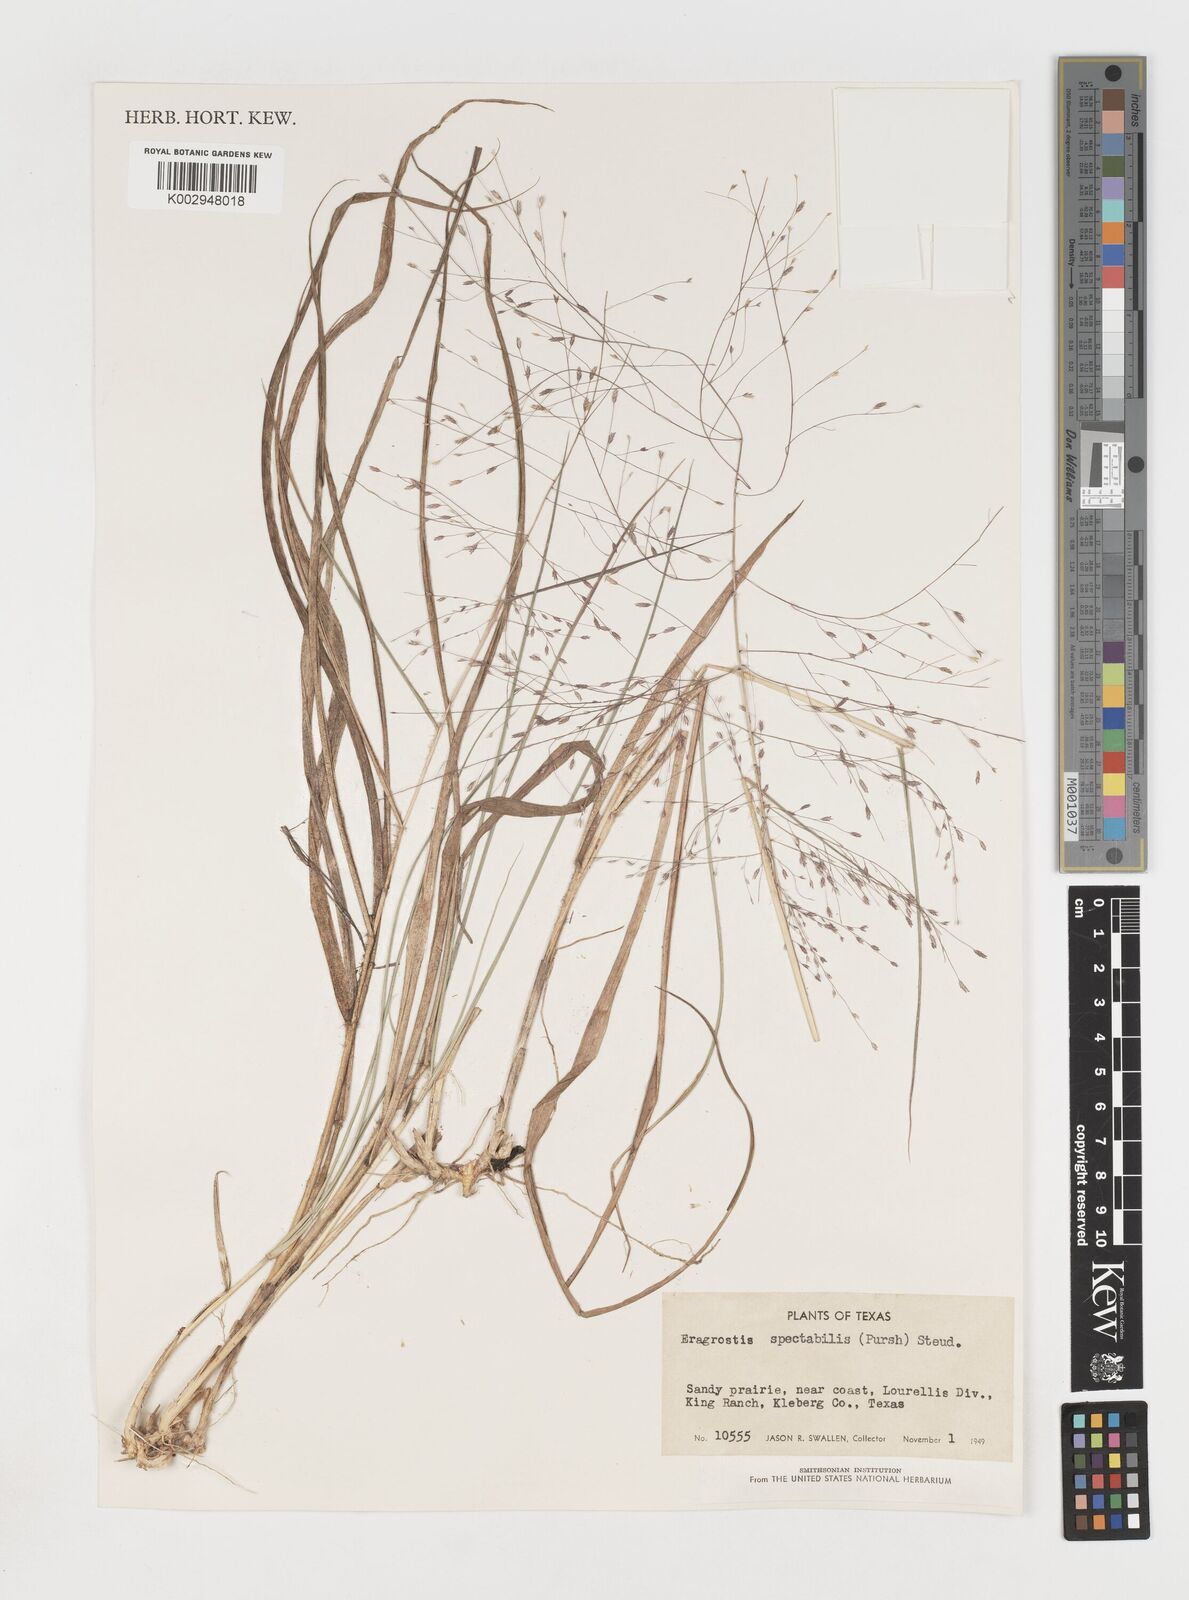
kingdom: Plantae
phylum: Tracheophyta
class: Liliopsida
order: Poales
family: Poaceae
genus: Eragrostis
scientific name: Eragrostis spectabilis
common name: Petticoat-climber
